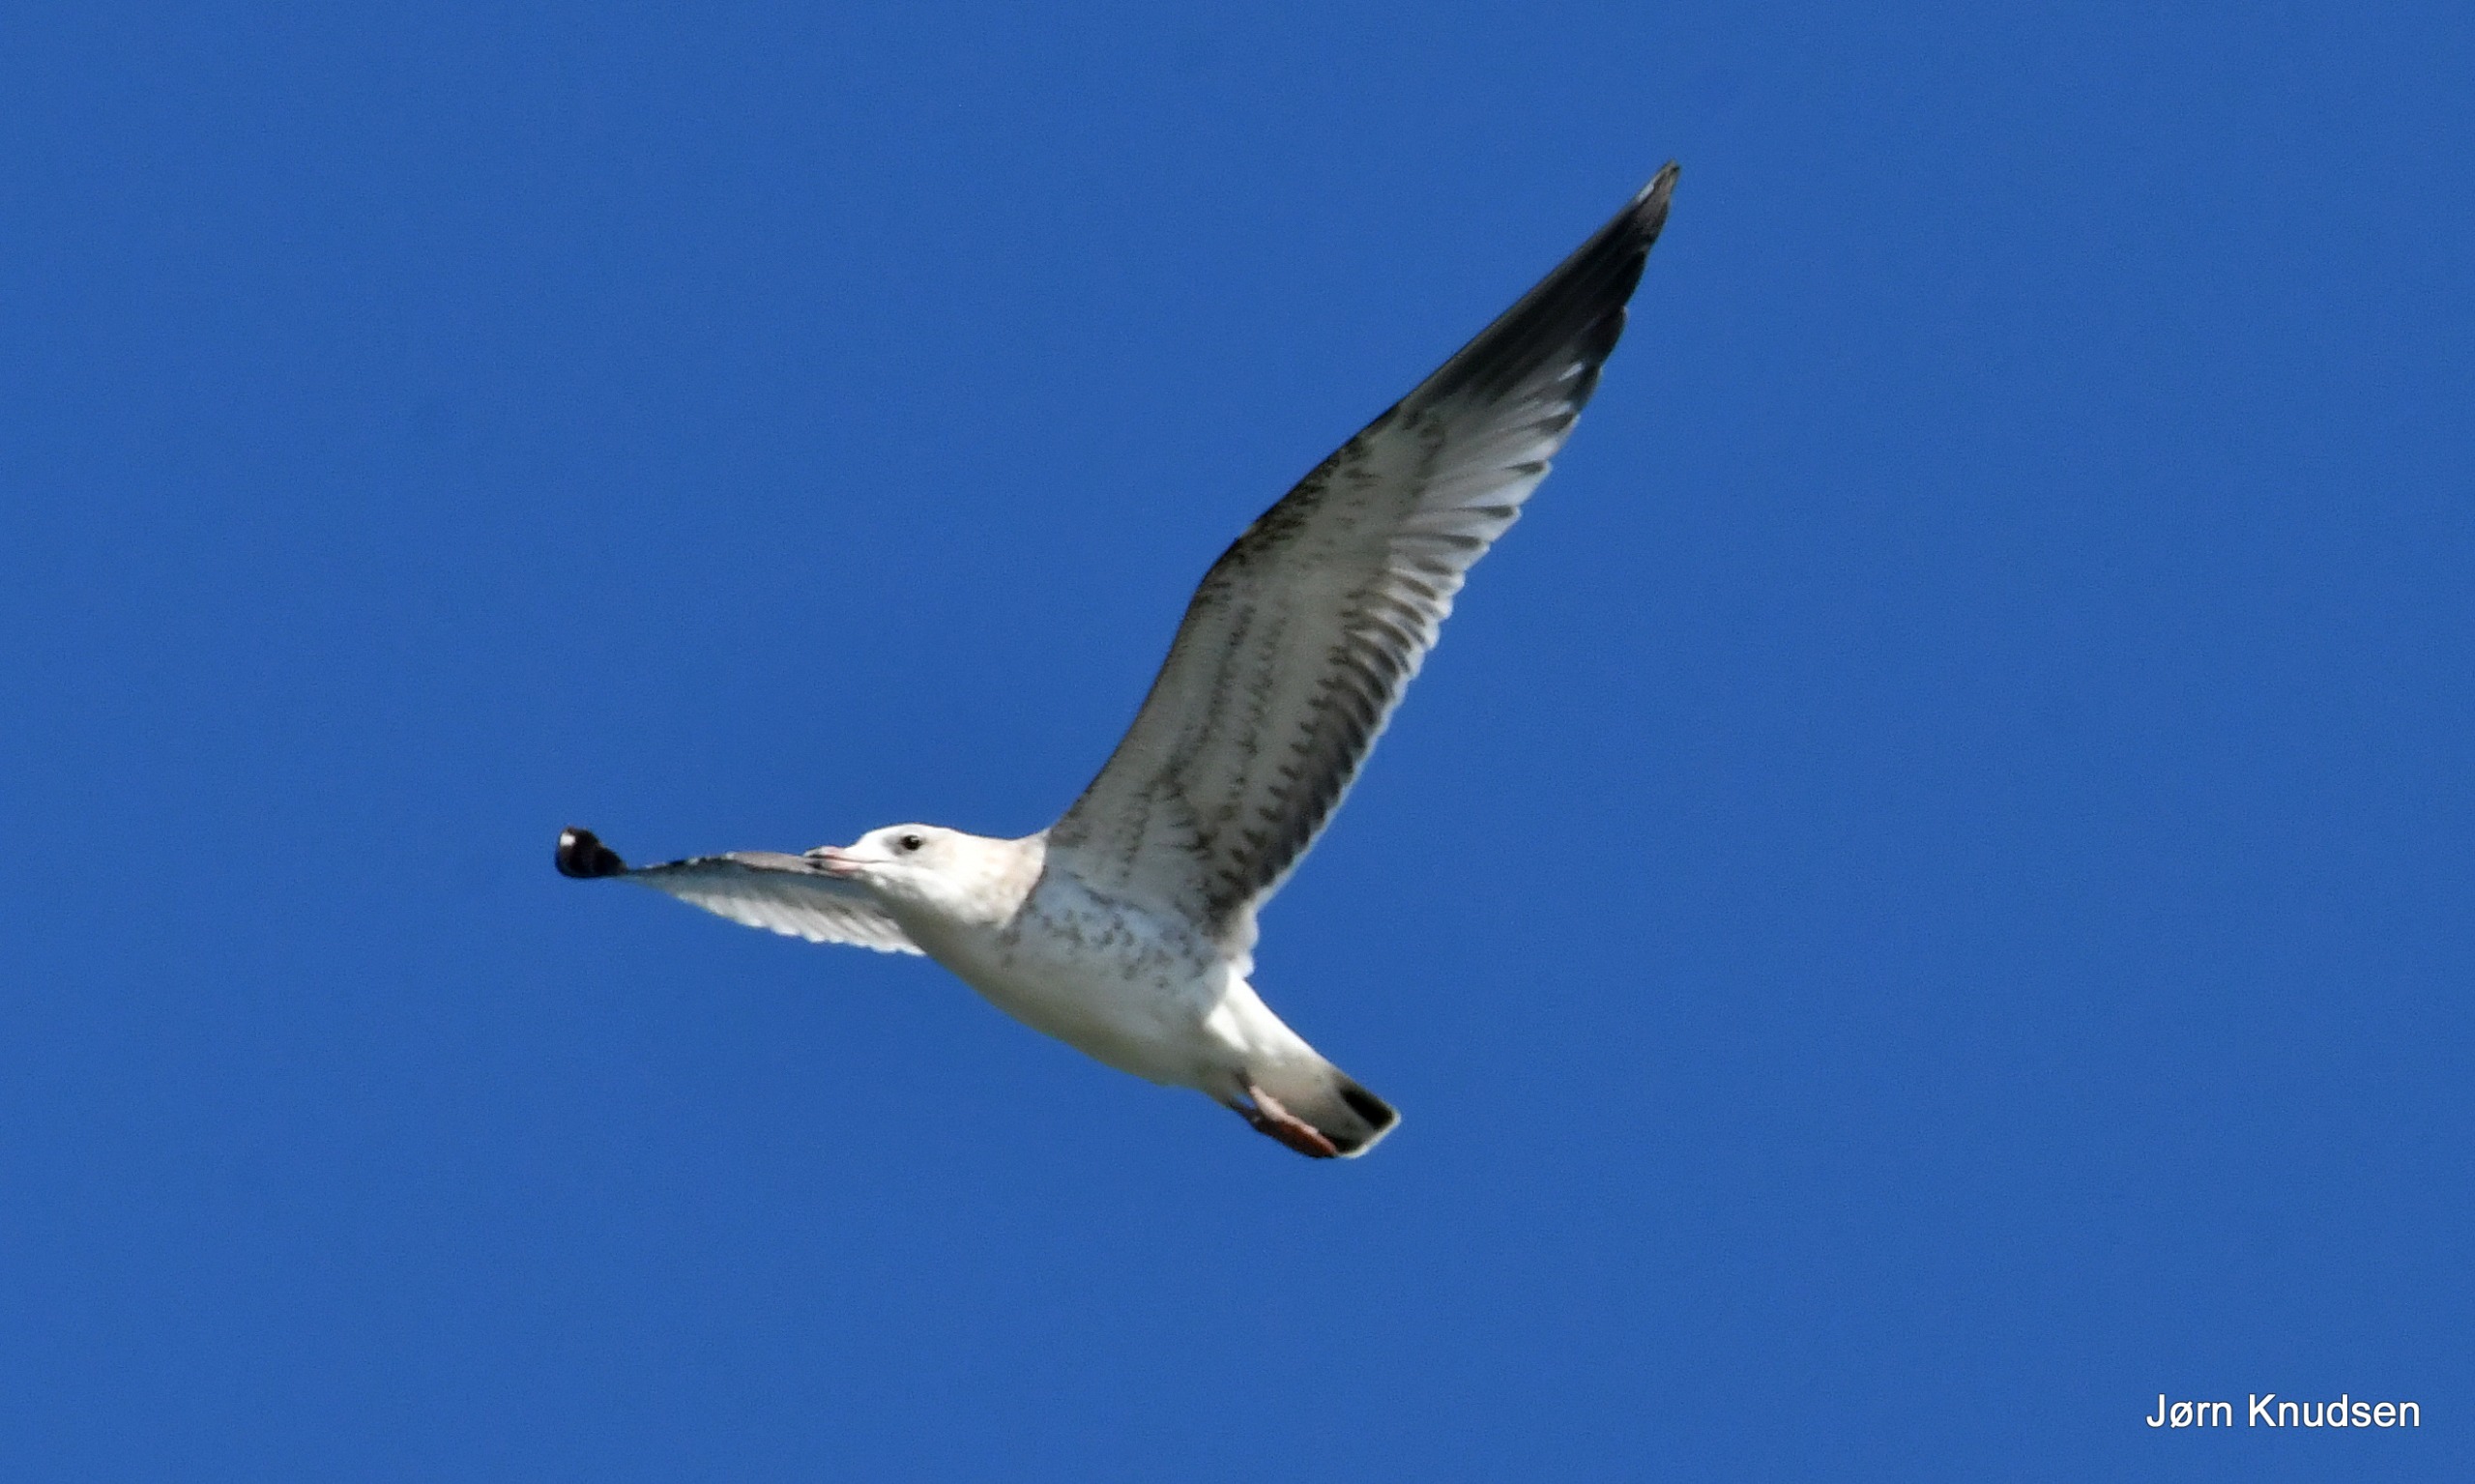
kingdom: Animalia
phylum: Chordata
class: Aves
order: Charadriiformes
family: Laridae
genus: Larus
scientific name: Larus canus
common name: Stormmåge
